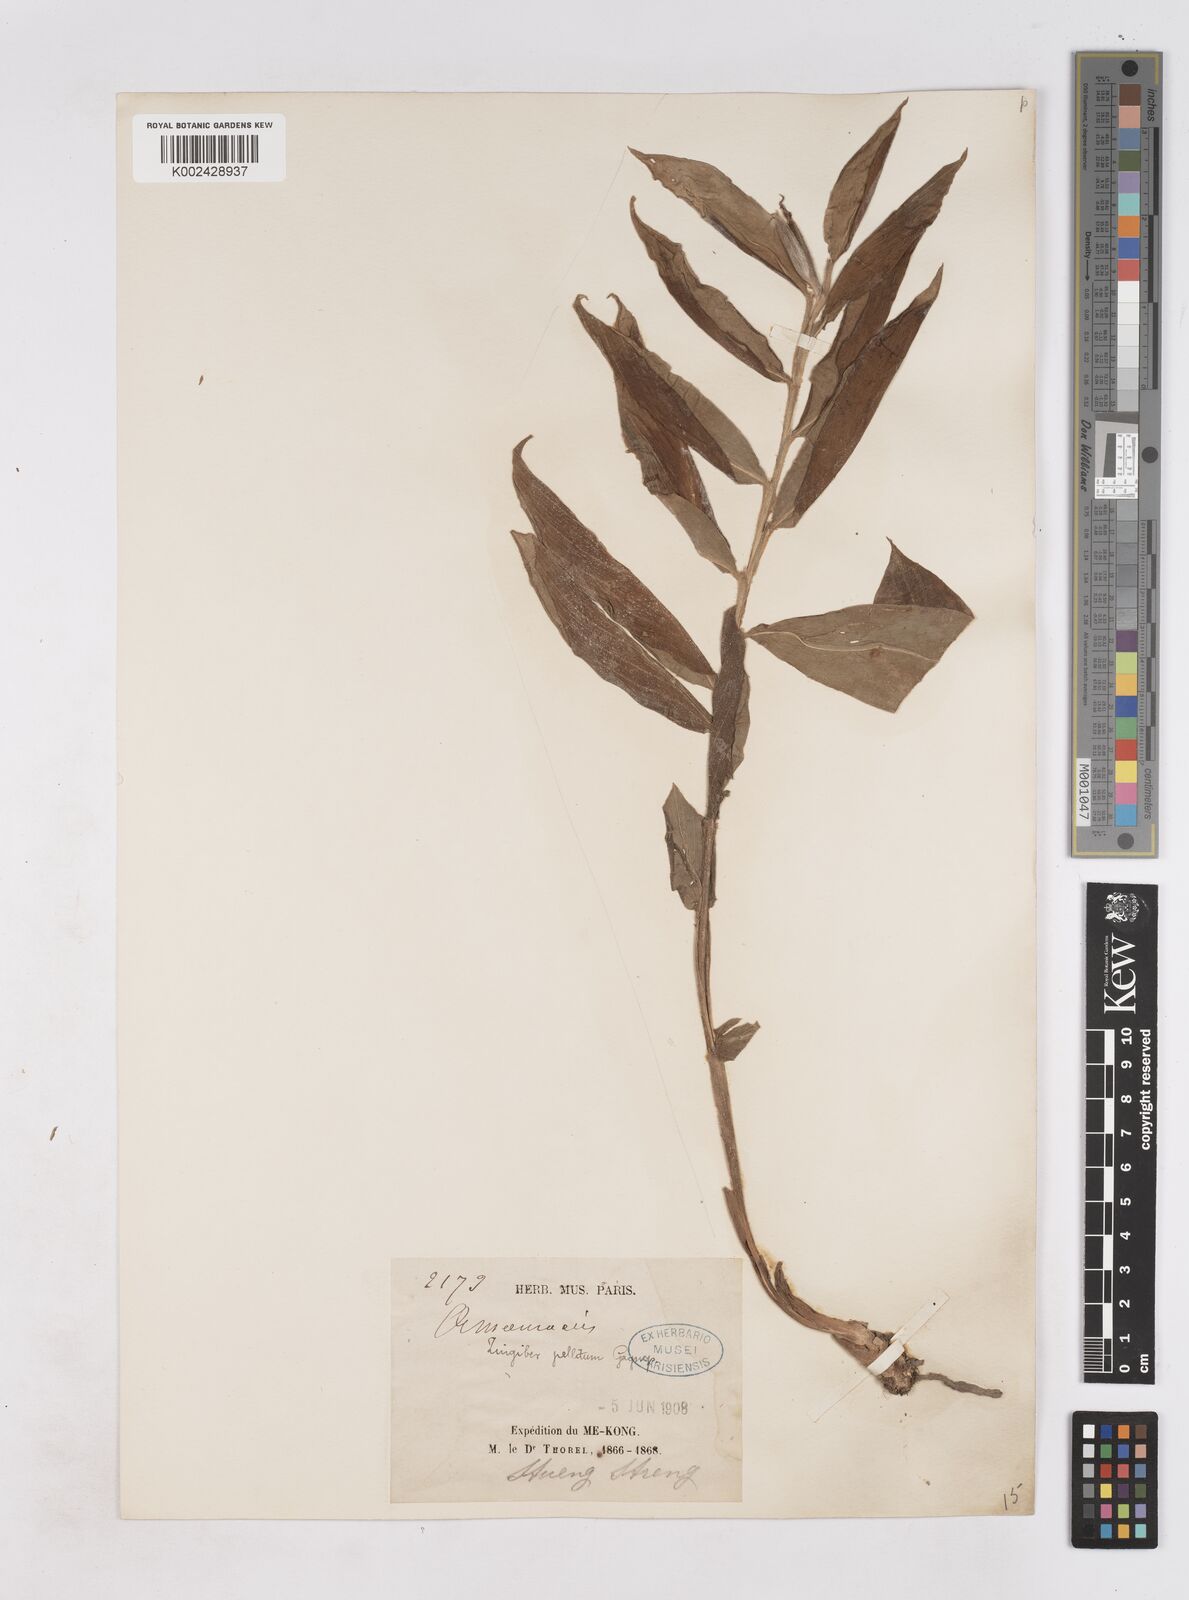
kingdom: Plantae
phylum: Tracheophyta
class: Liliopsida
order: Zingiberales
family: Zingiberaceae
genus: Zingiber
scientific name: Zingiber pellitum
